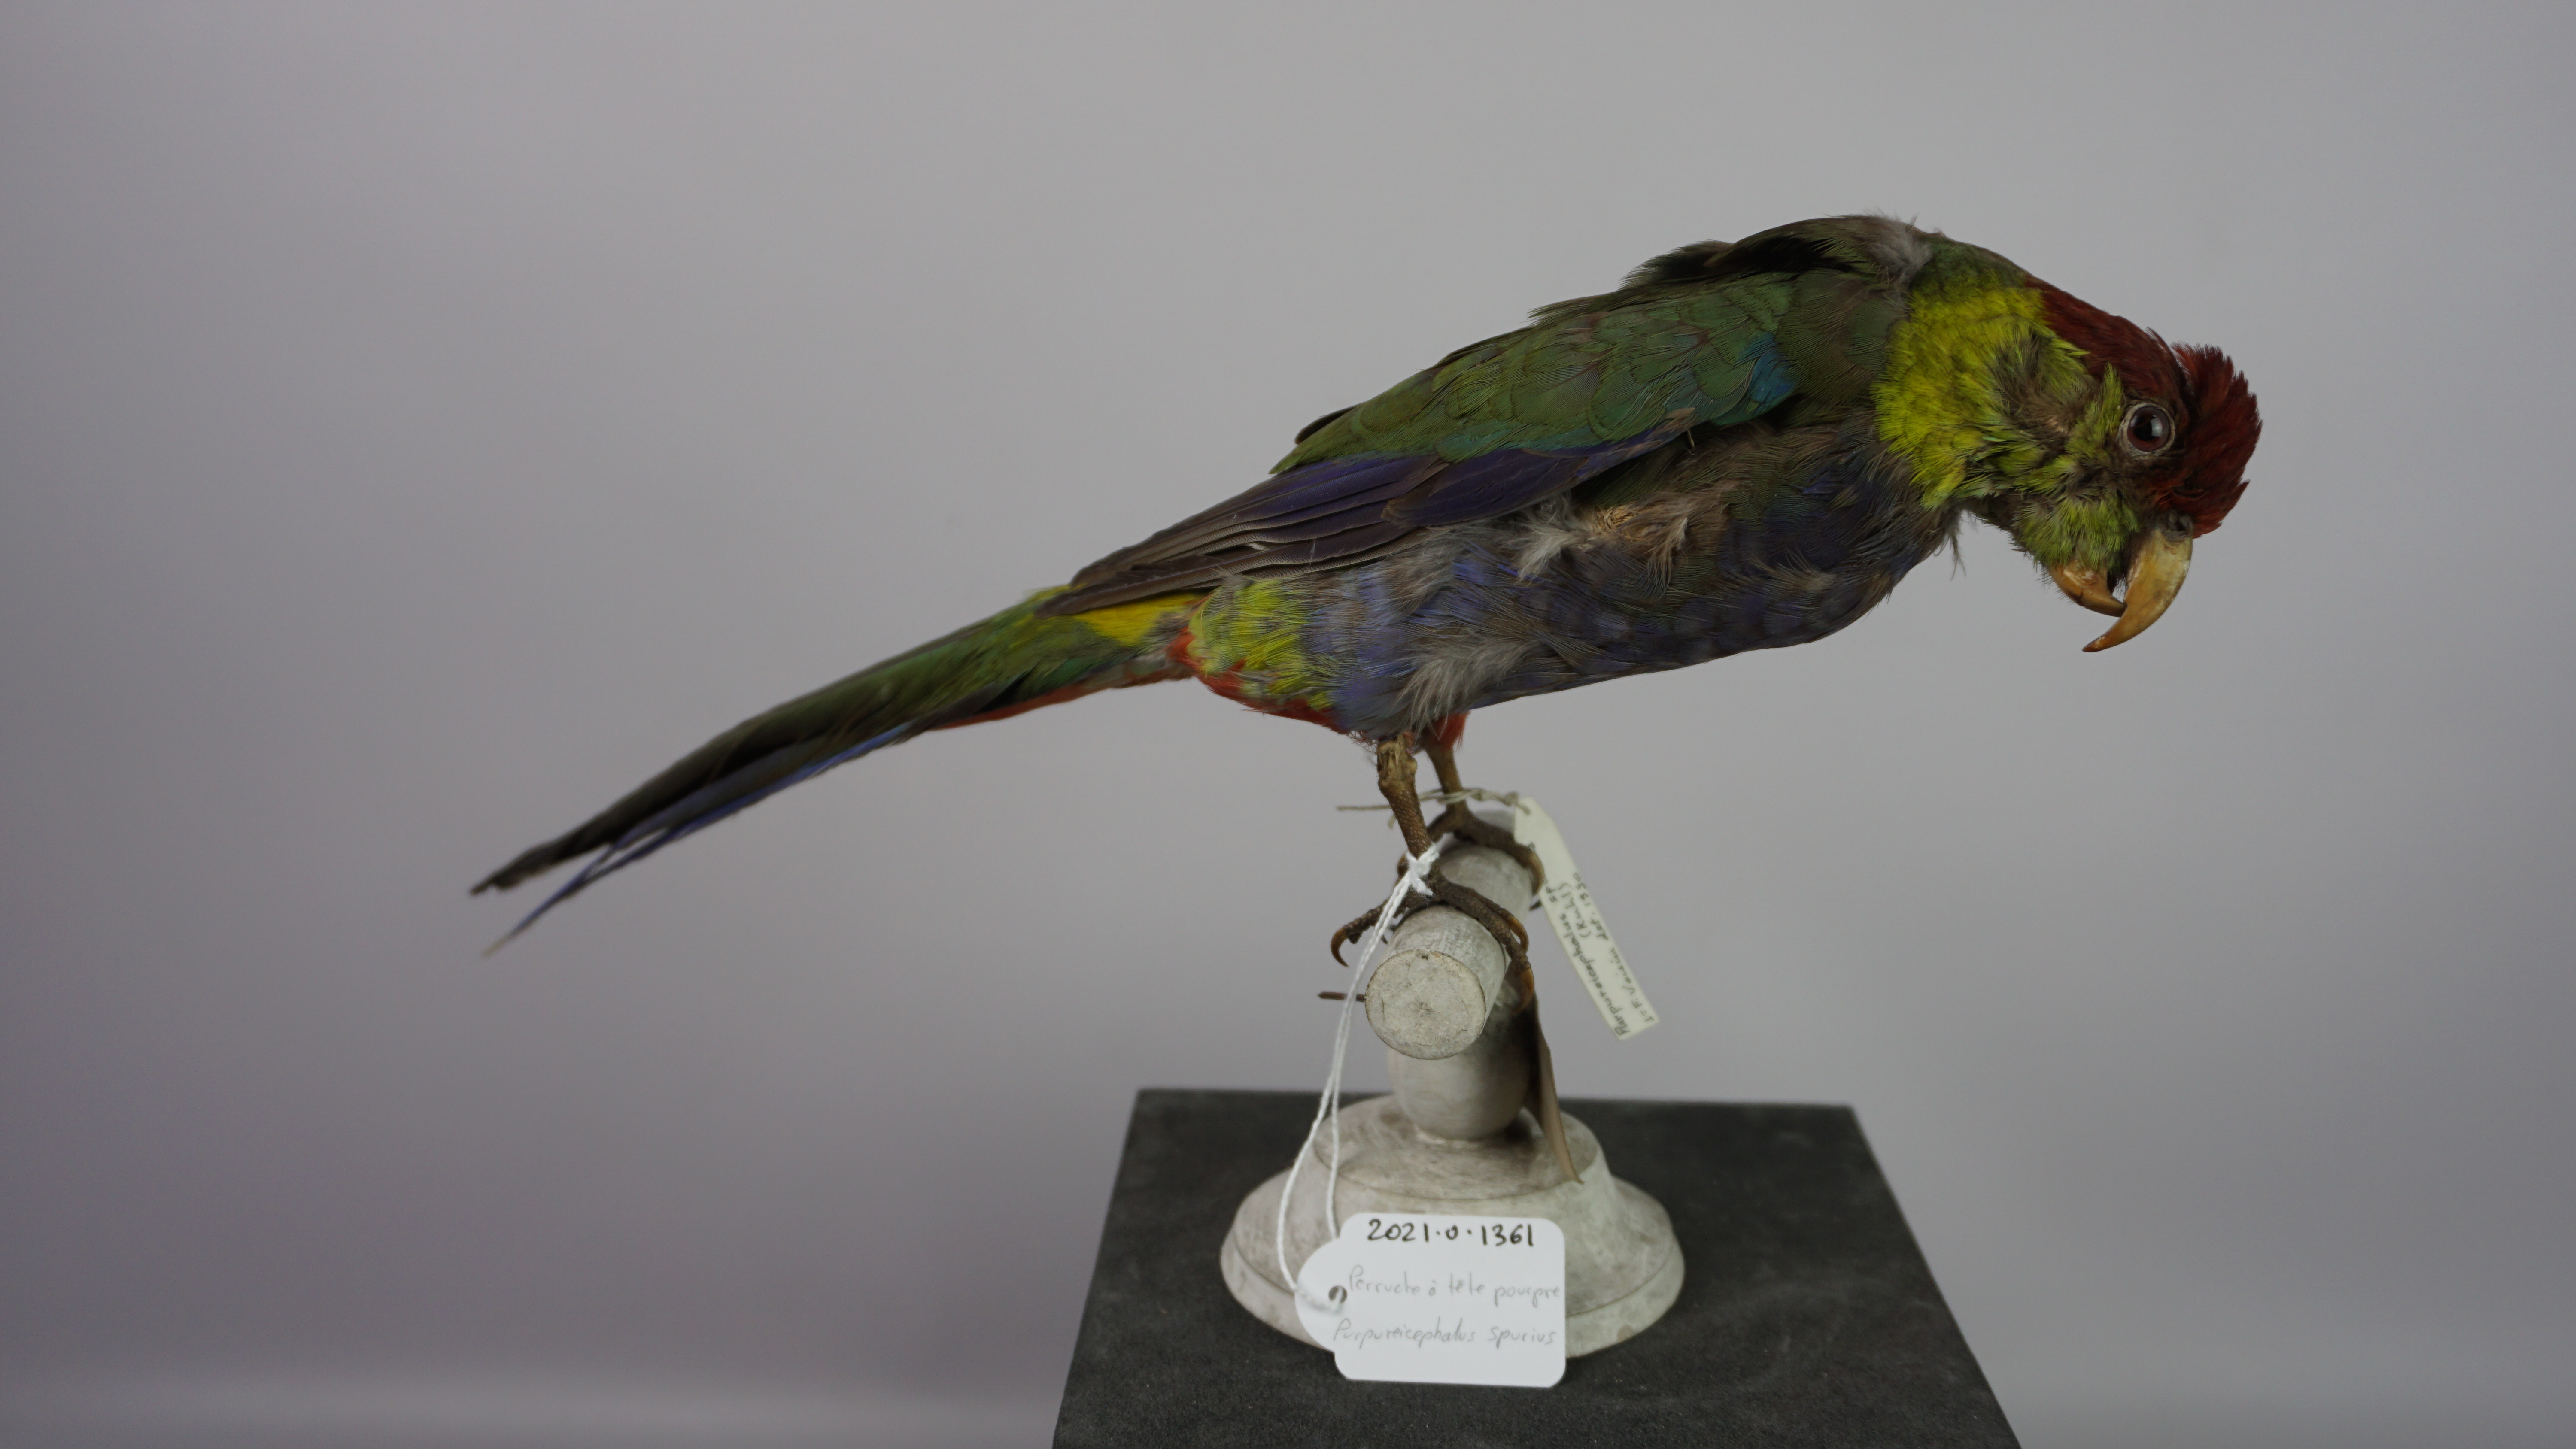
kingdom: Animalia
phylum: Chordata
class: Aves
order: Psittaciformes
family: Psittacidae
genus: Purpureicephalus
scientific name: Purpureicephalus spurius
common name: Red-capped parrot
